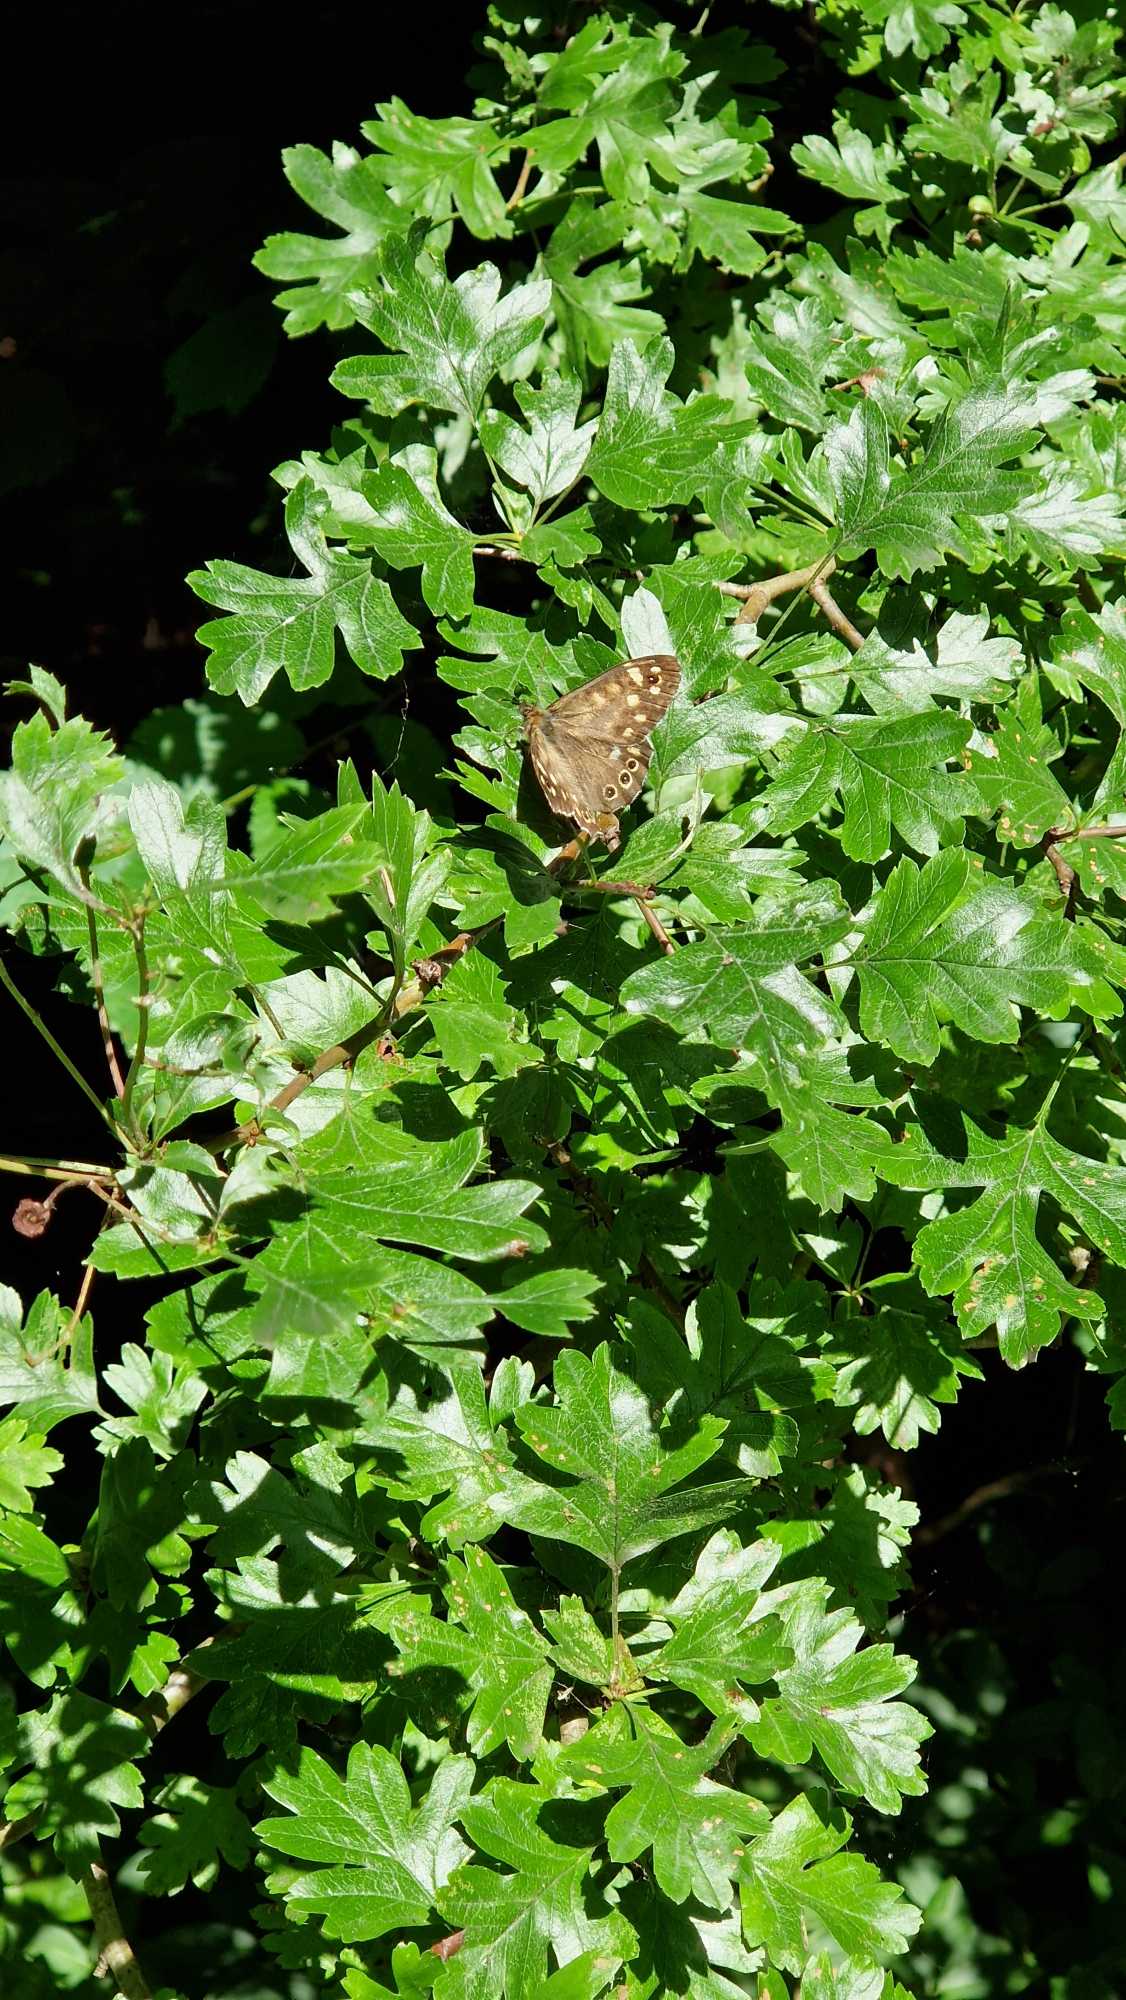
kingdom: Animalia
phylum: Arthropoda
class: Insecta
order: Lepidoptera
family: Nymphalidae
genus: Pararge
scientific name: Pararge aegeria
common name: Skovrandøje
